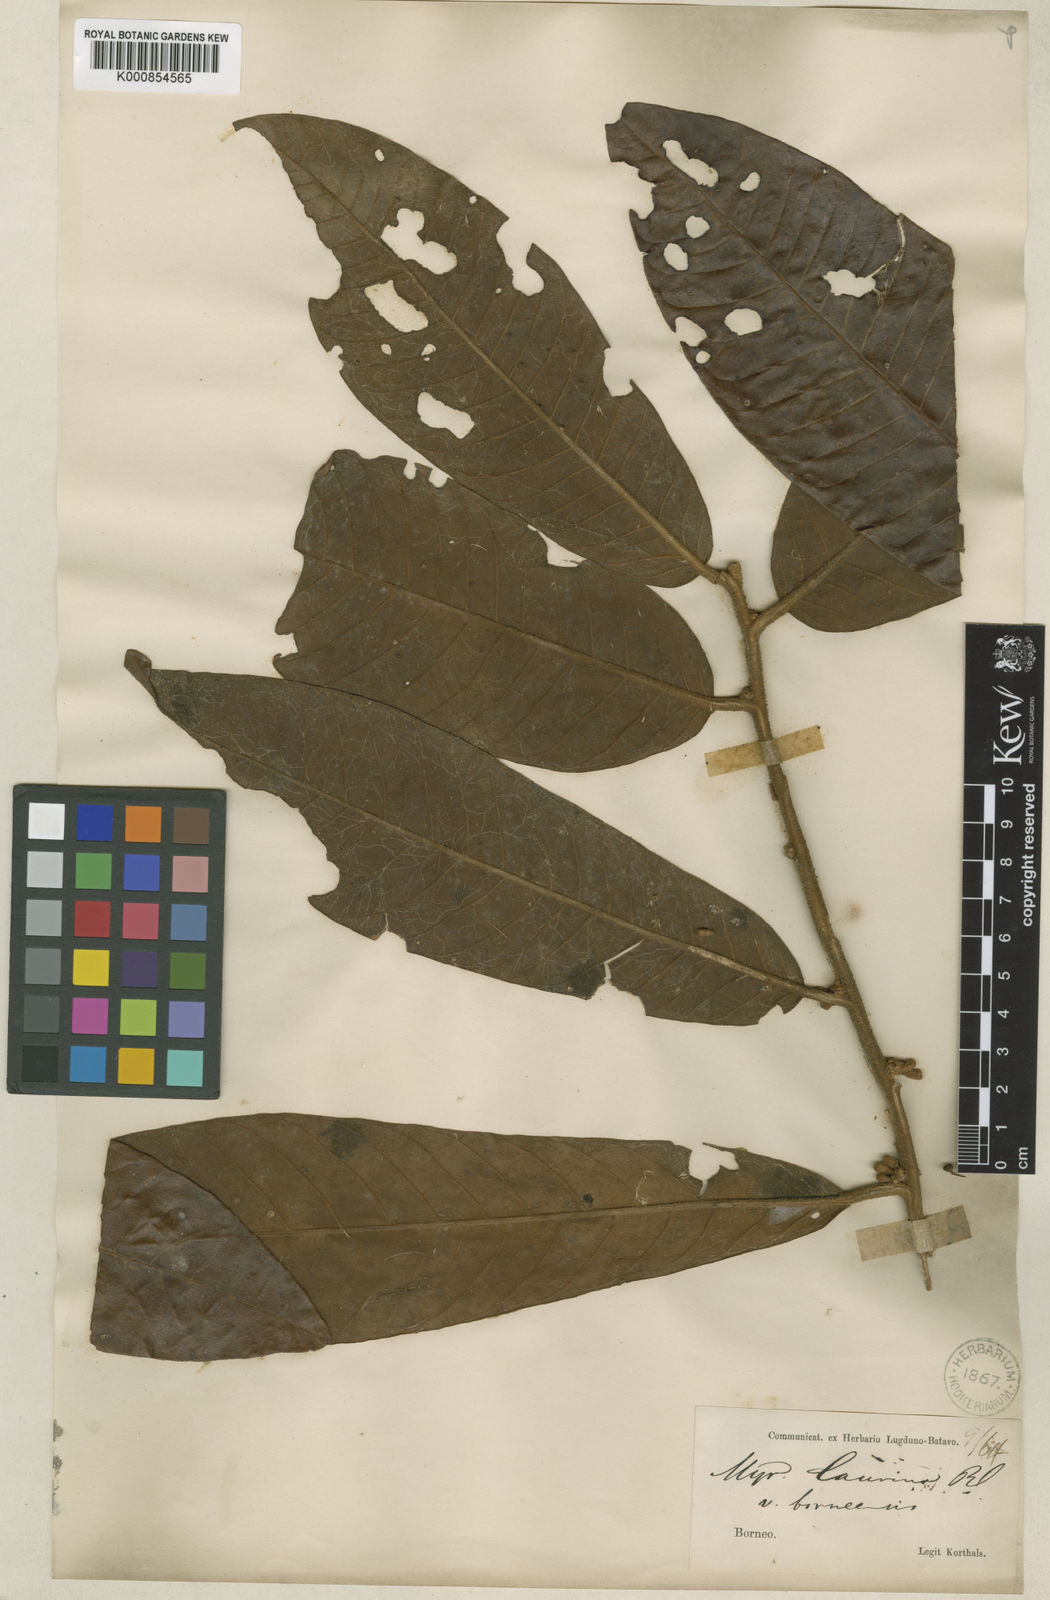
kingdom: Plantae
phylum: Tracheophyta
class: Magnoliopsida
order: Magnoliales
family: Myristicaceae
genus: Knema
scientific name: Knema laurina
